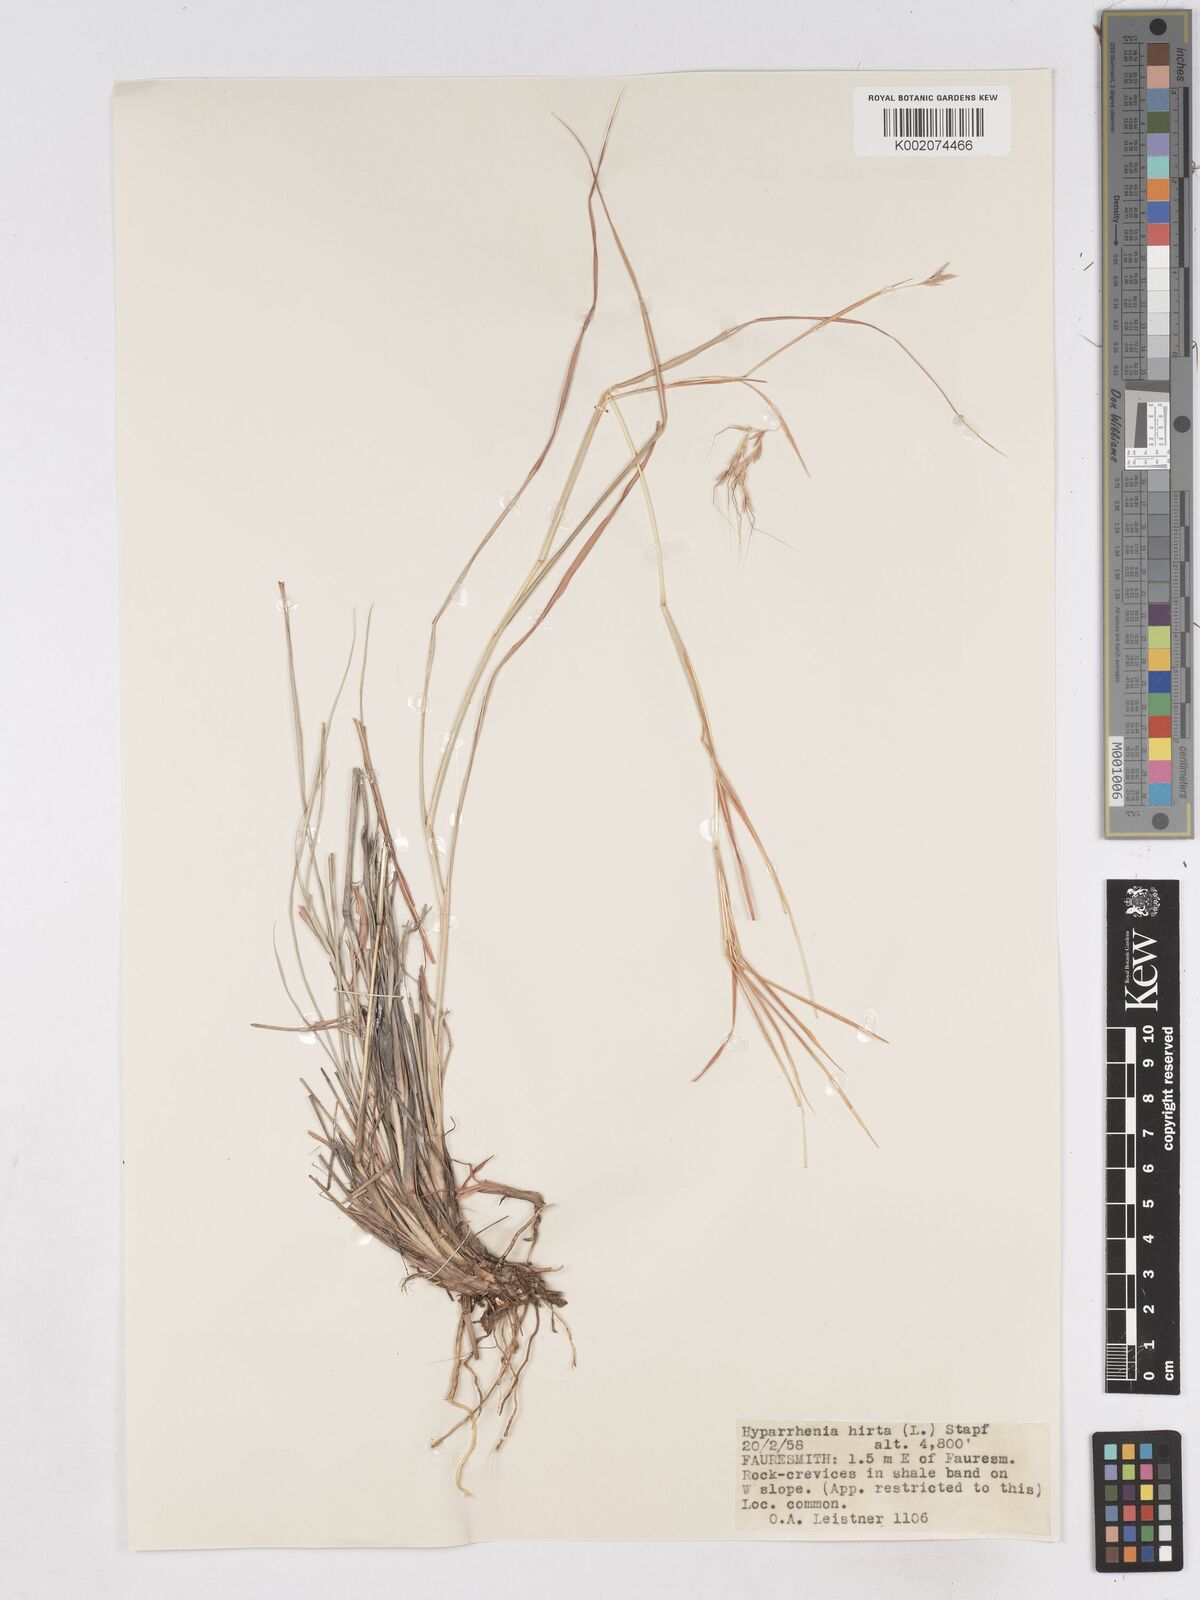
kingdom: Plantae
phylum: Tracheophyta
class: Liliopsida
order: Poales
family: Poaceae
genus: Hyparrhenia
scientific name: Hyparrhenia hirta
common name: Thatching grass
